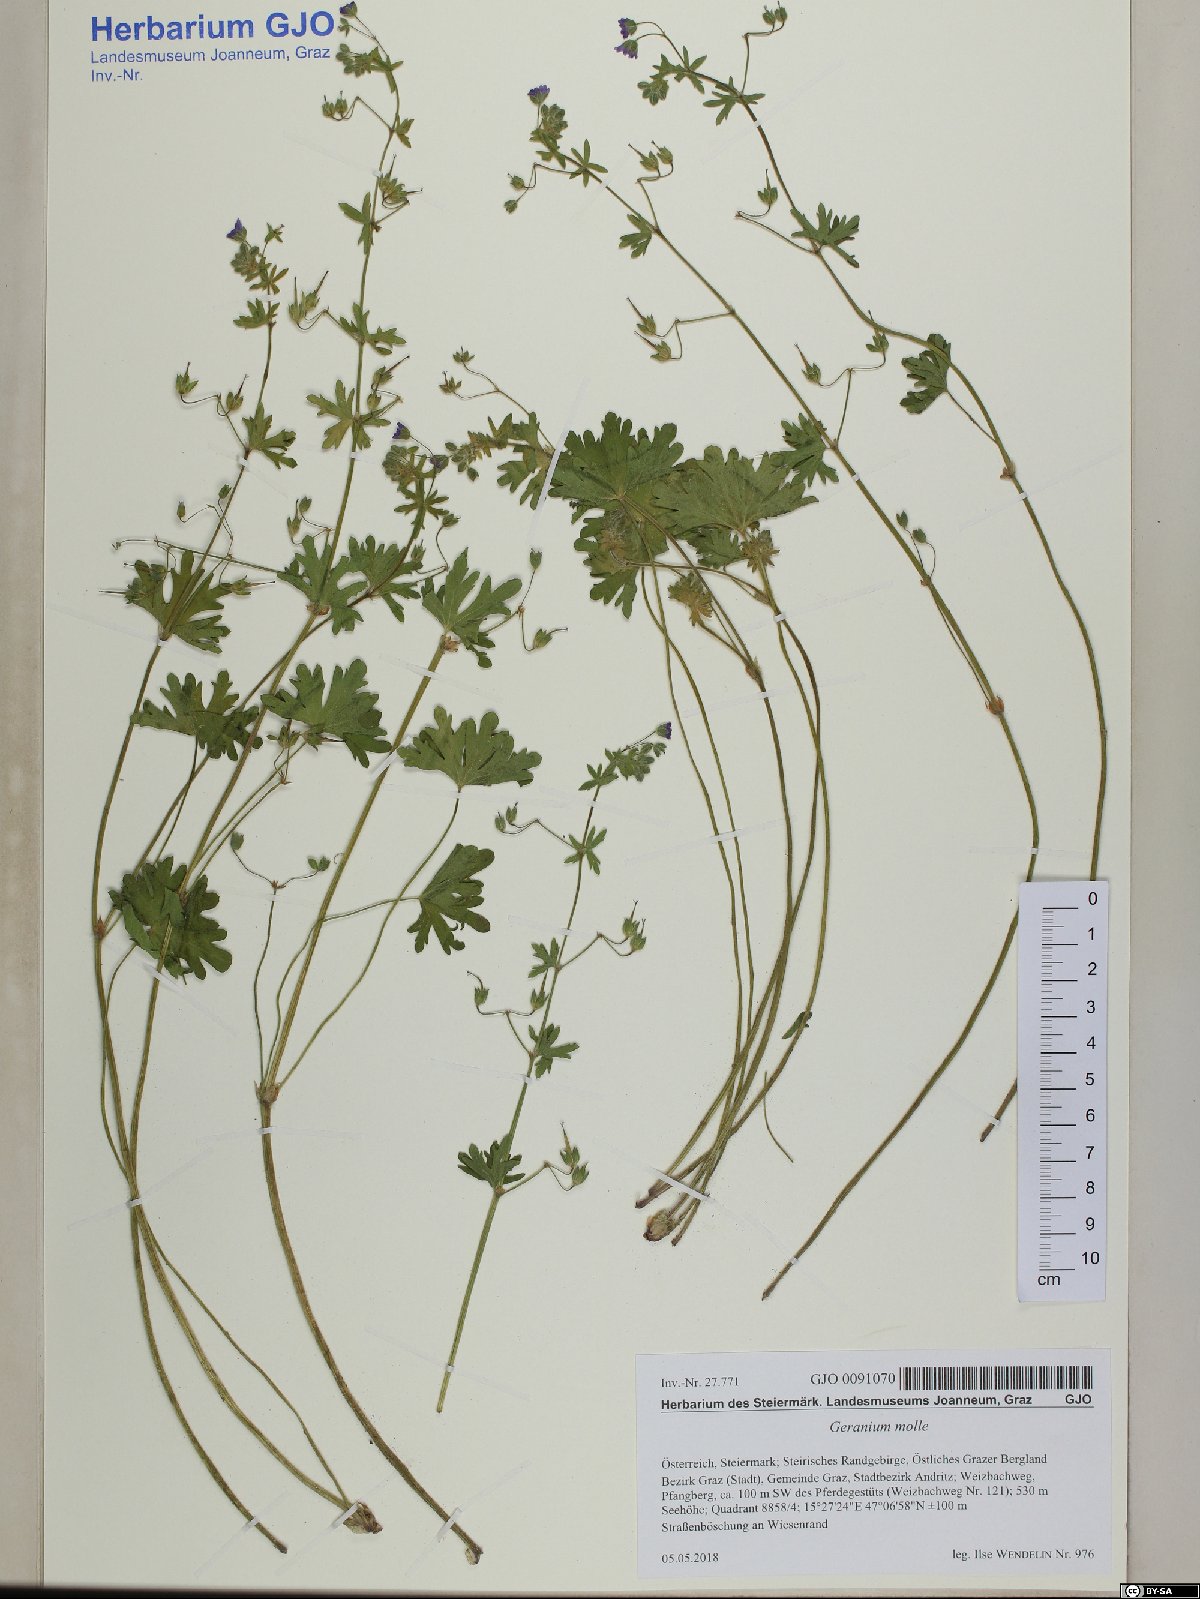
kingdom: Plantae
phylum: Tracheophyta
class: Magnoliopsida
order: Geraniales
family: Geraniaceae
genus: Geranium
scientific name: Geranium molle
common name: Dove's-foot crane's-bill
